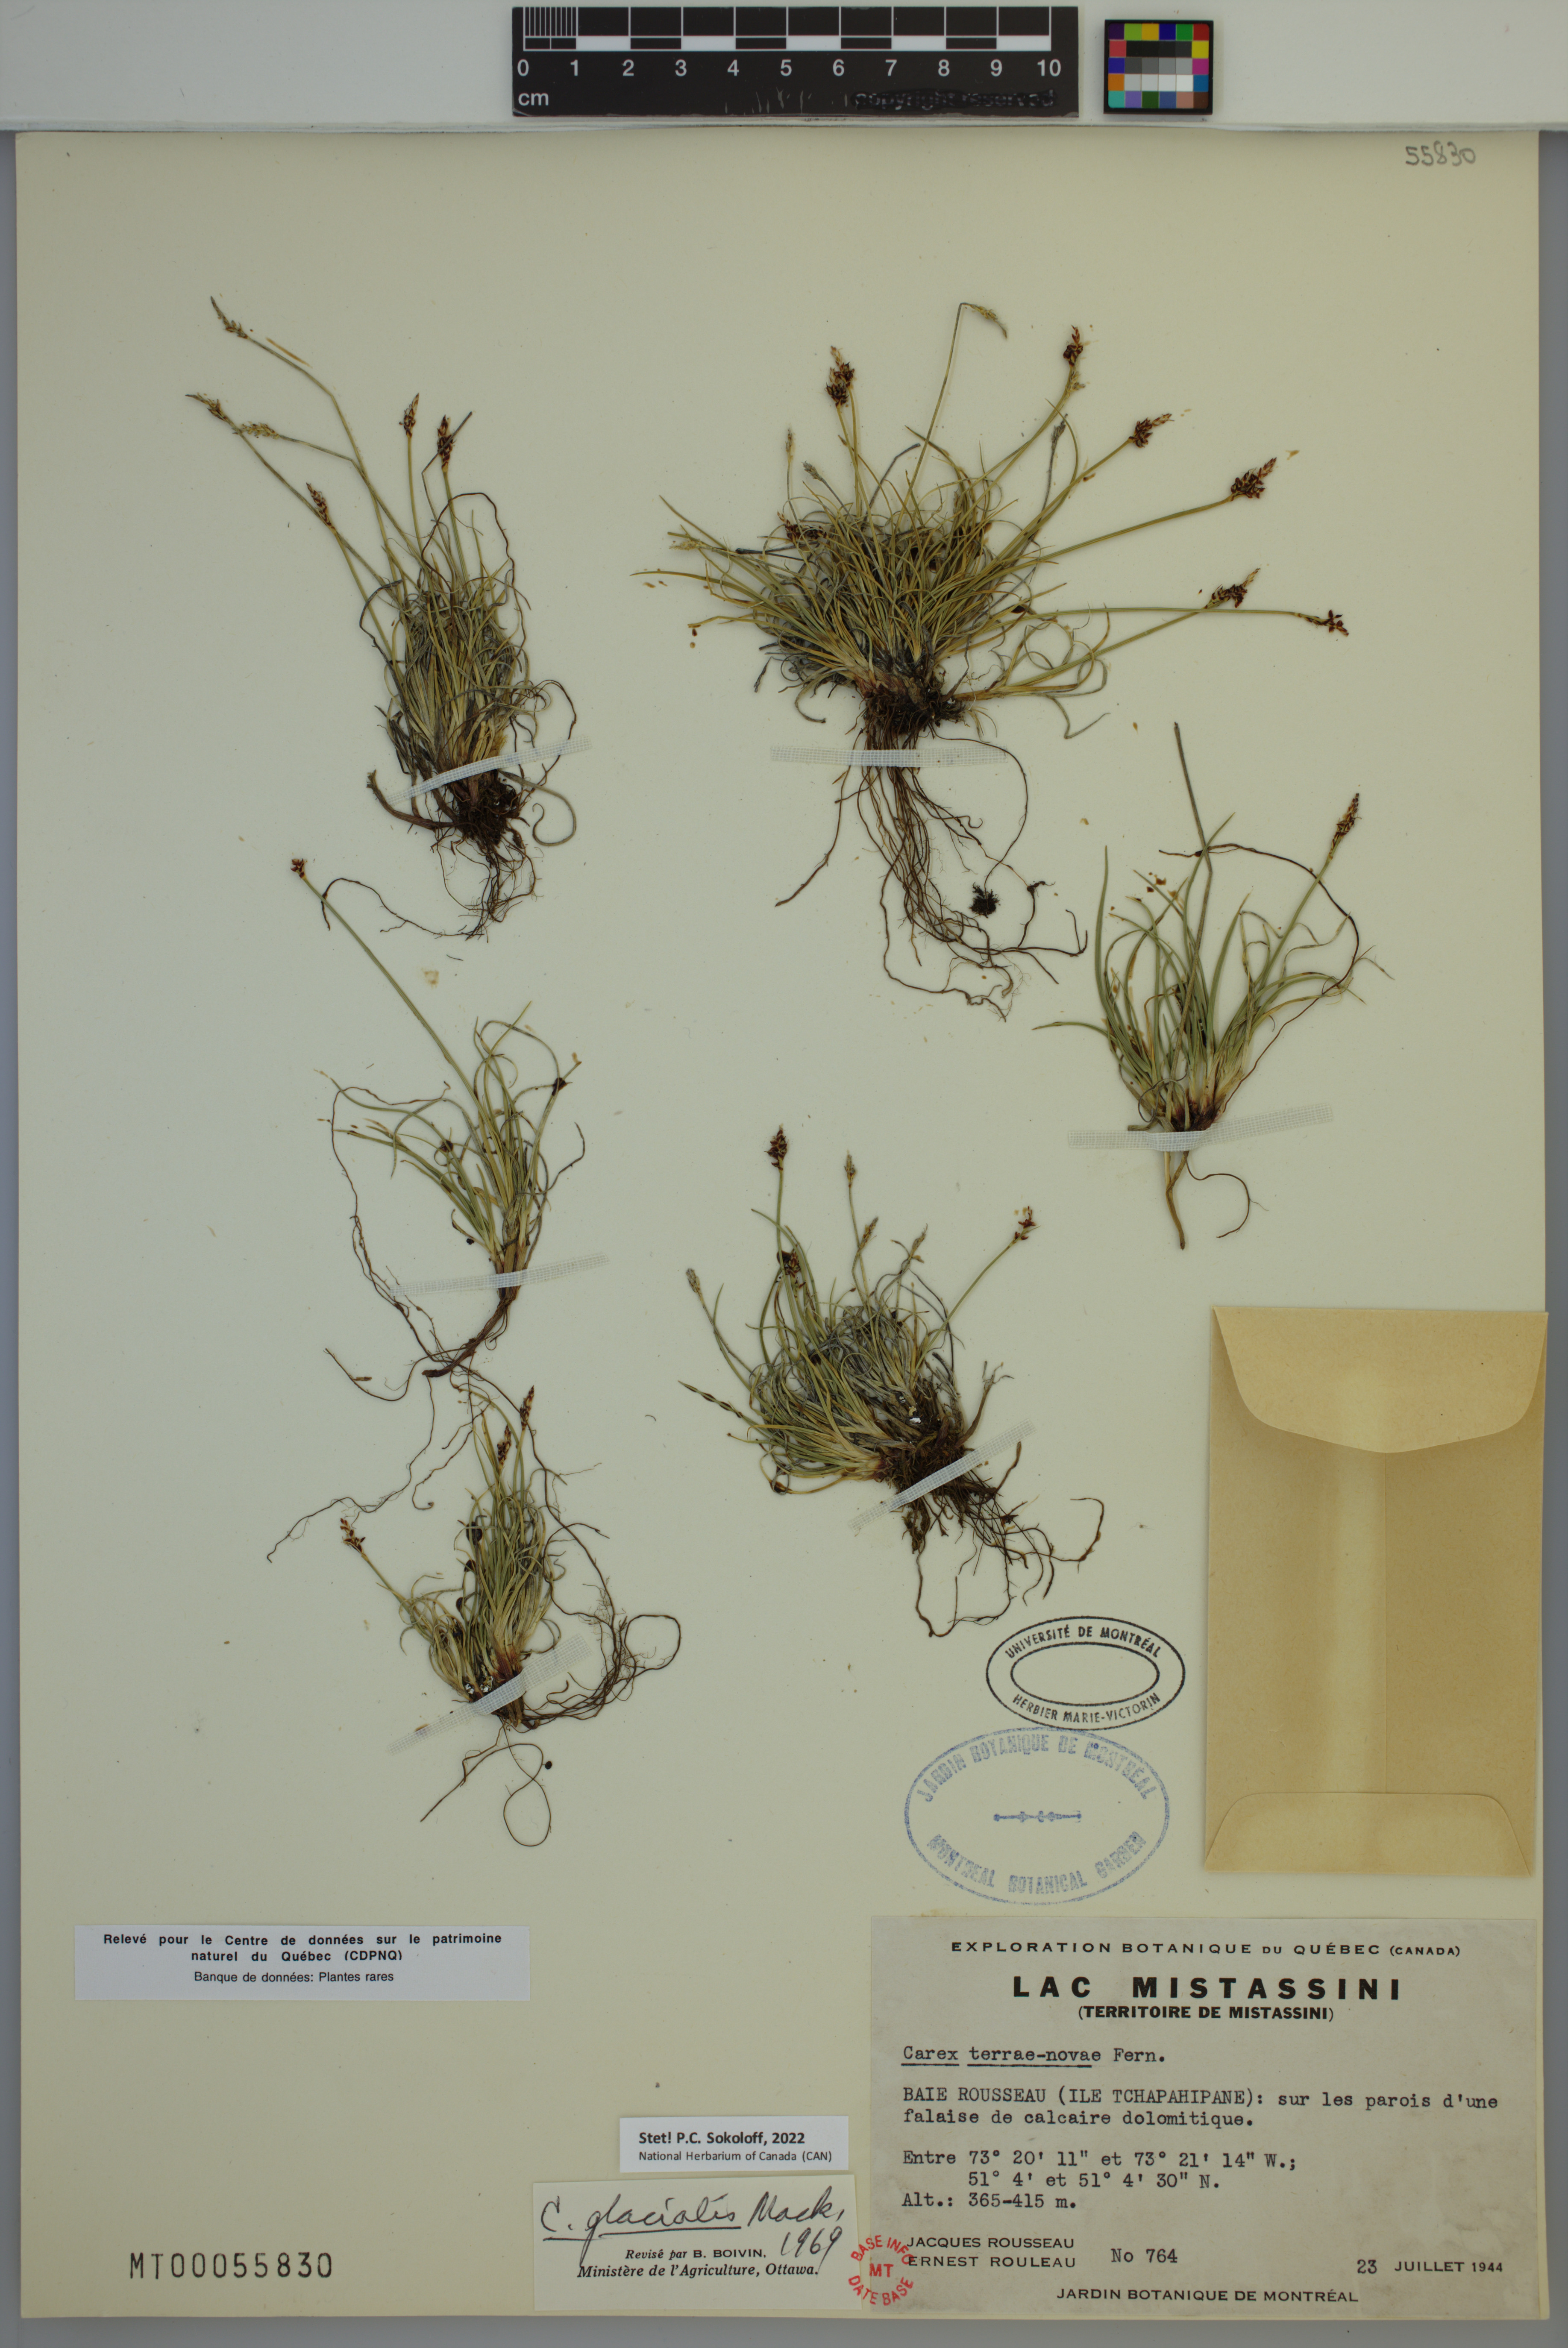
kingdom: Plantae
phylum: Tracheophyta
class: Liliopsida
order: Poales
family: Cyperaceae
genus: Carex
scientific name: Carex glacialis
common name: Newfoundland sedge
